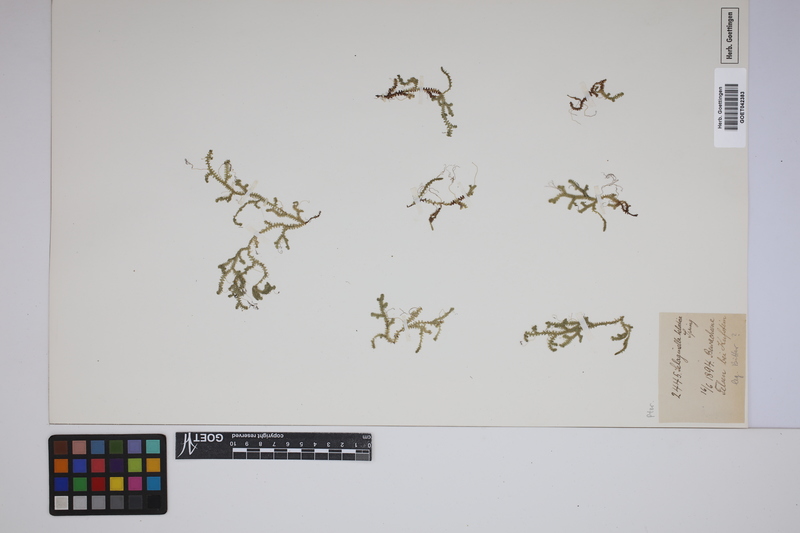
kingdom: Plantae
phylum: Tracheophyta
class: Lycopodiopsida
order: Selaginellales
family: Selaginellaceae
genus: Selaginella
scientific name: Selaginella helvetica
